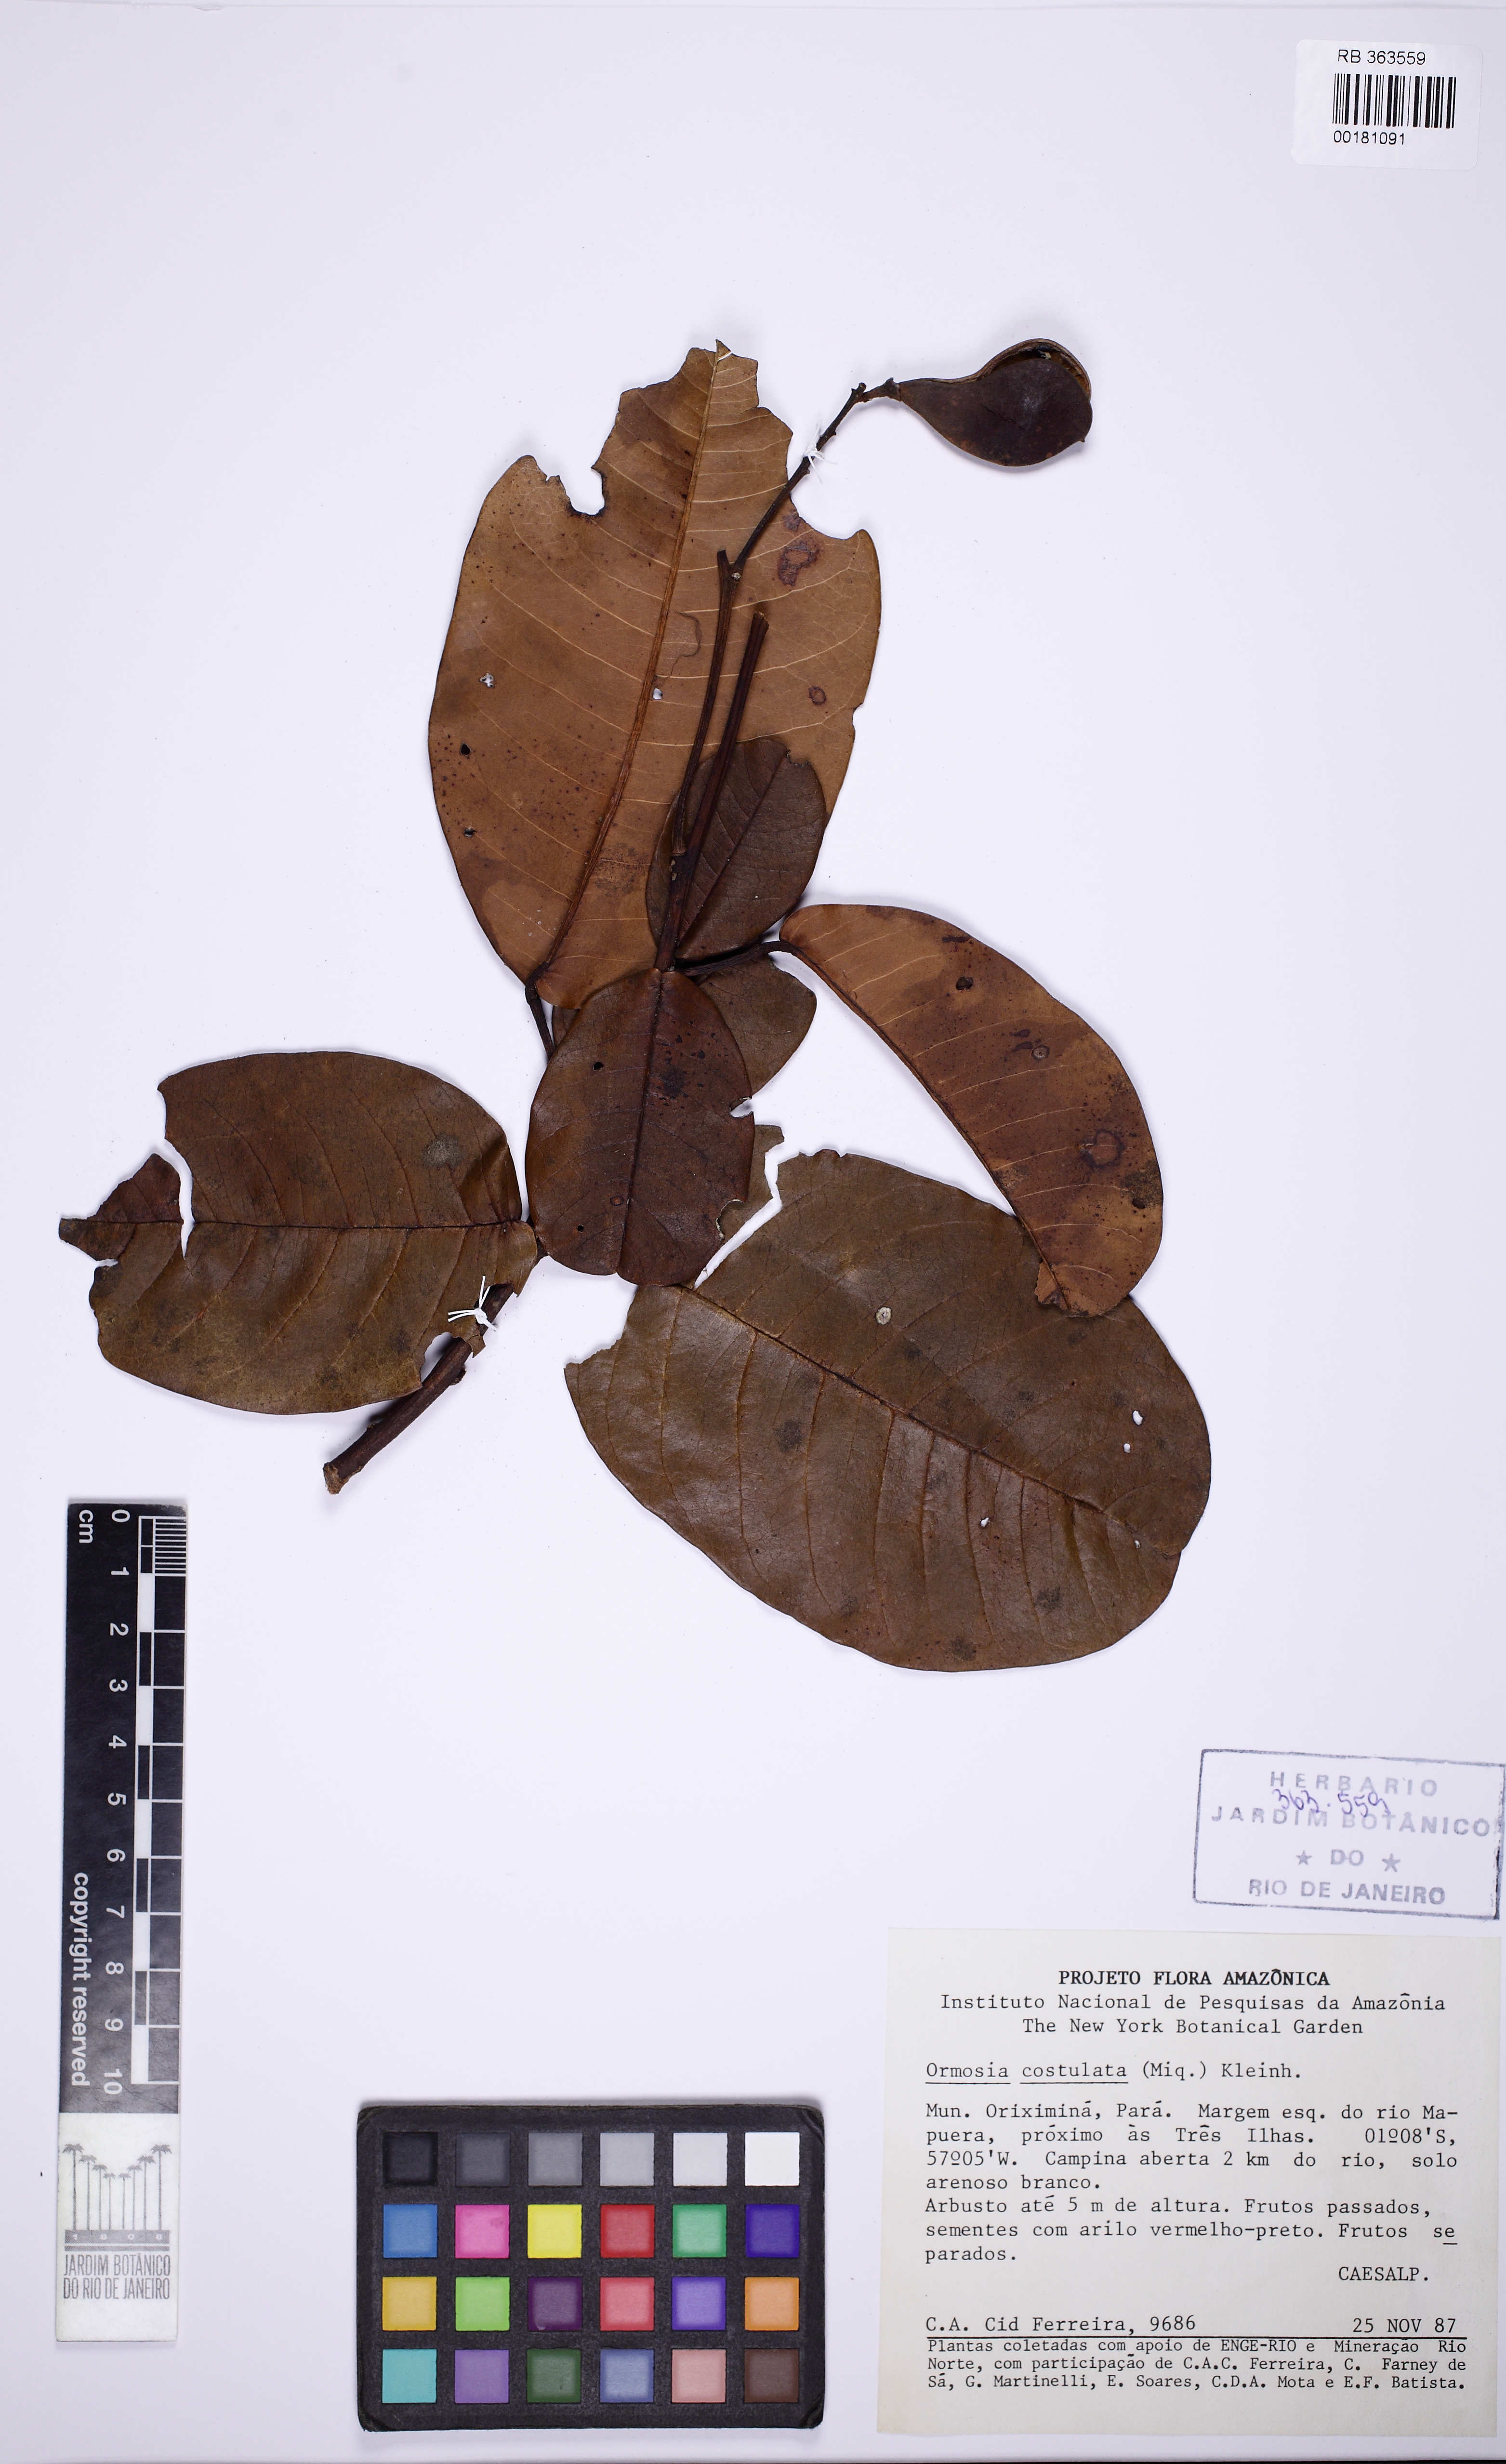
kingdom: Plantae
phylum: Tracheophyta
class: Magnoliopsida
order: Fabales
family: Fabaceae
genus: Ormosia
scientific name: Ormosia costulata
